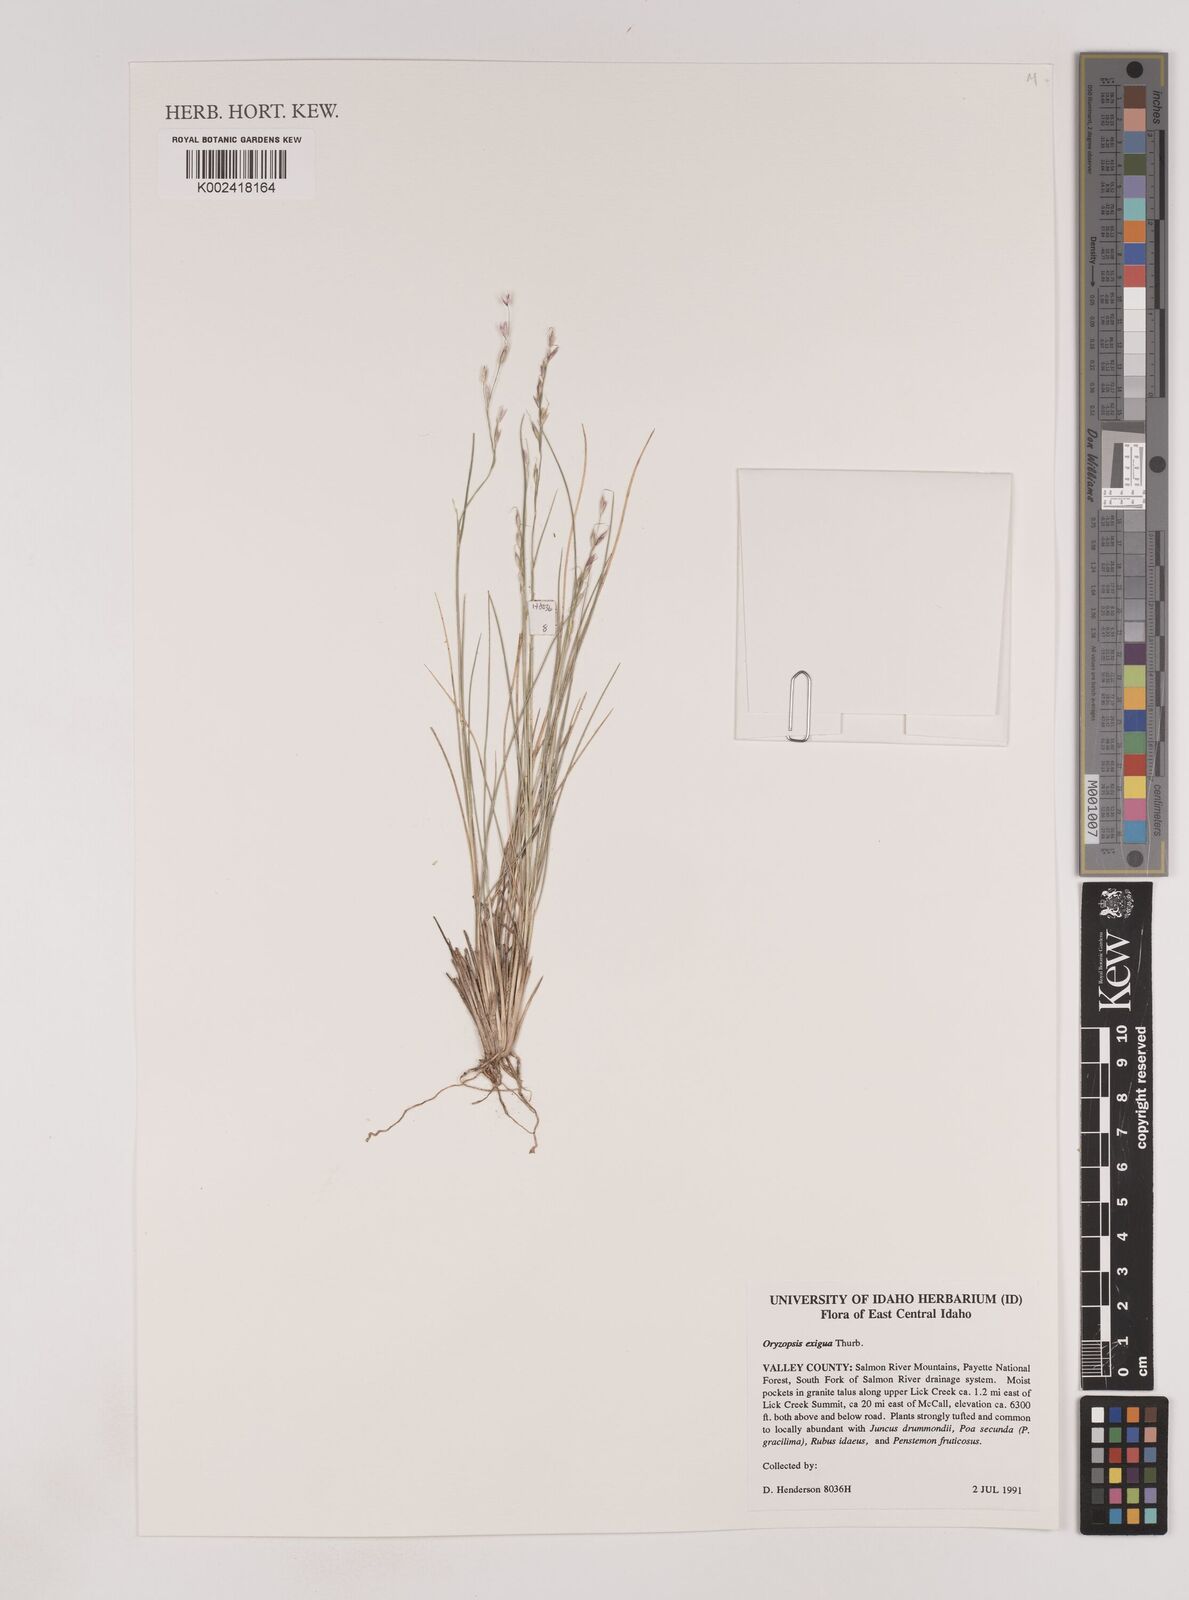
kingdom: Plantae
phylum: Tracheophyta
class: Liliopsida
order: Poales
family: Poaceae
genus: Piptatheropsis
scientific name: Piptatheropsis exigua
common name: Little mountain ricegrass
